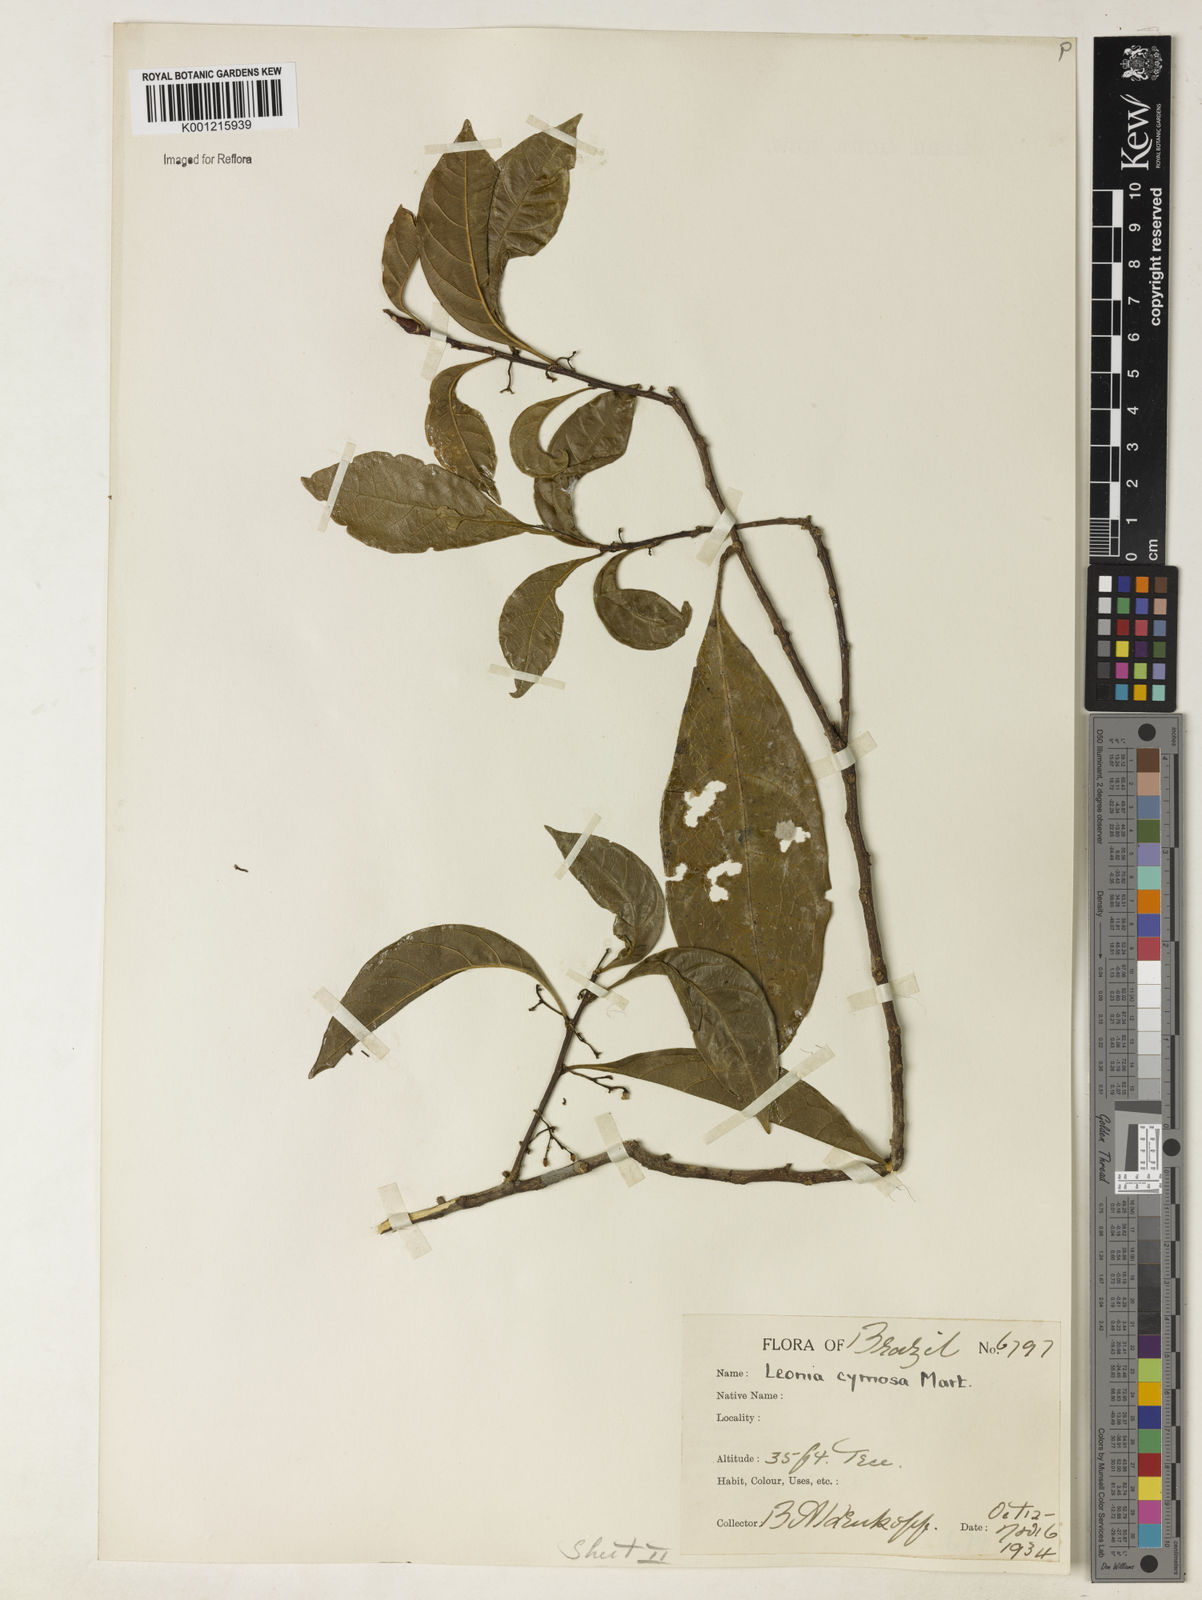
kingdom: Plantae
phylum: Tracheophyta
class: Magnoliopsida
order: Malpighiales
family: Violaceae
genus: Leonia
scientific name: Leonia cymosa
